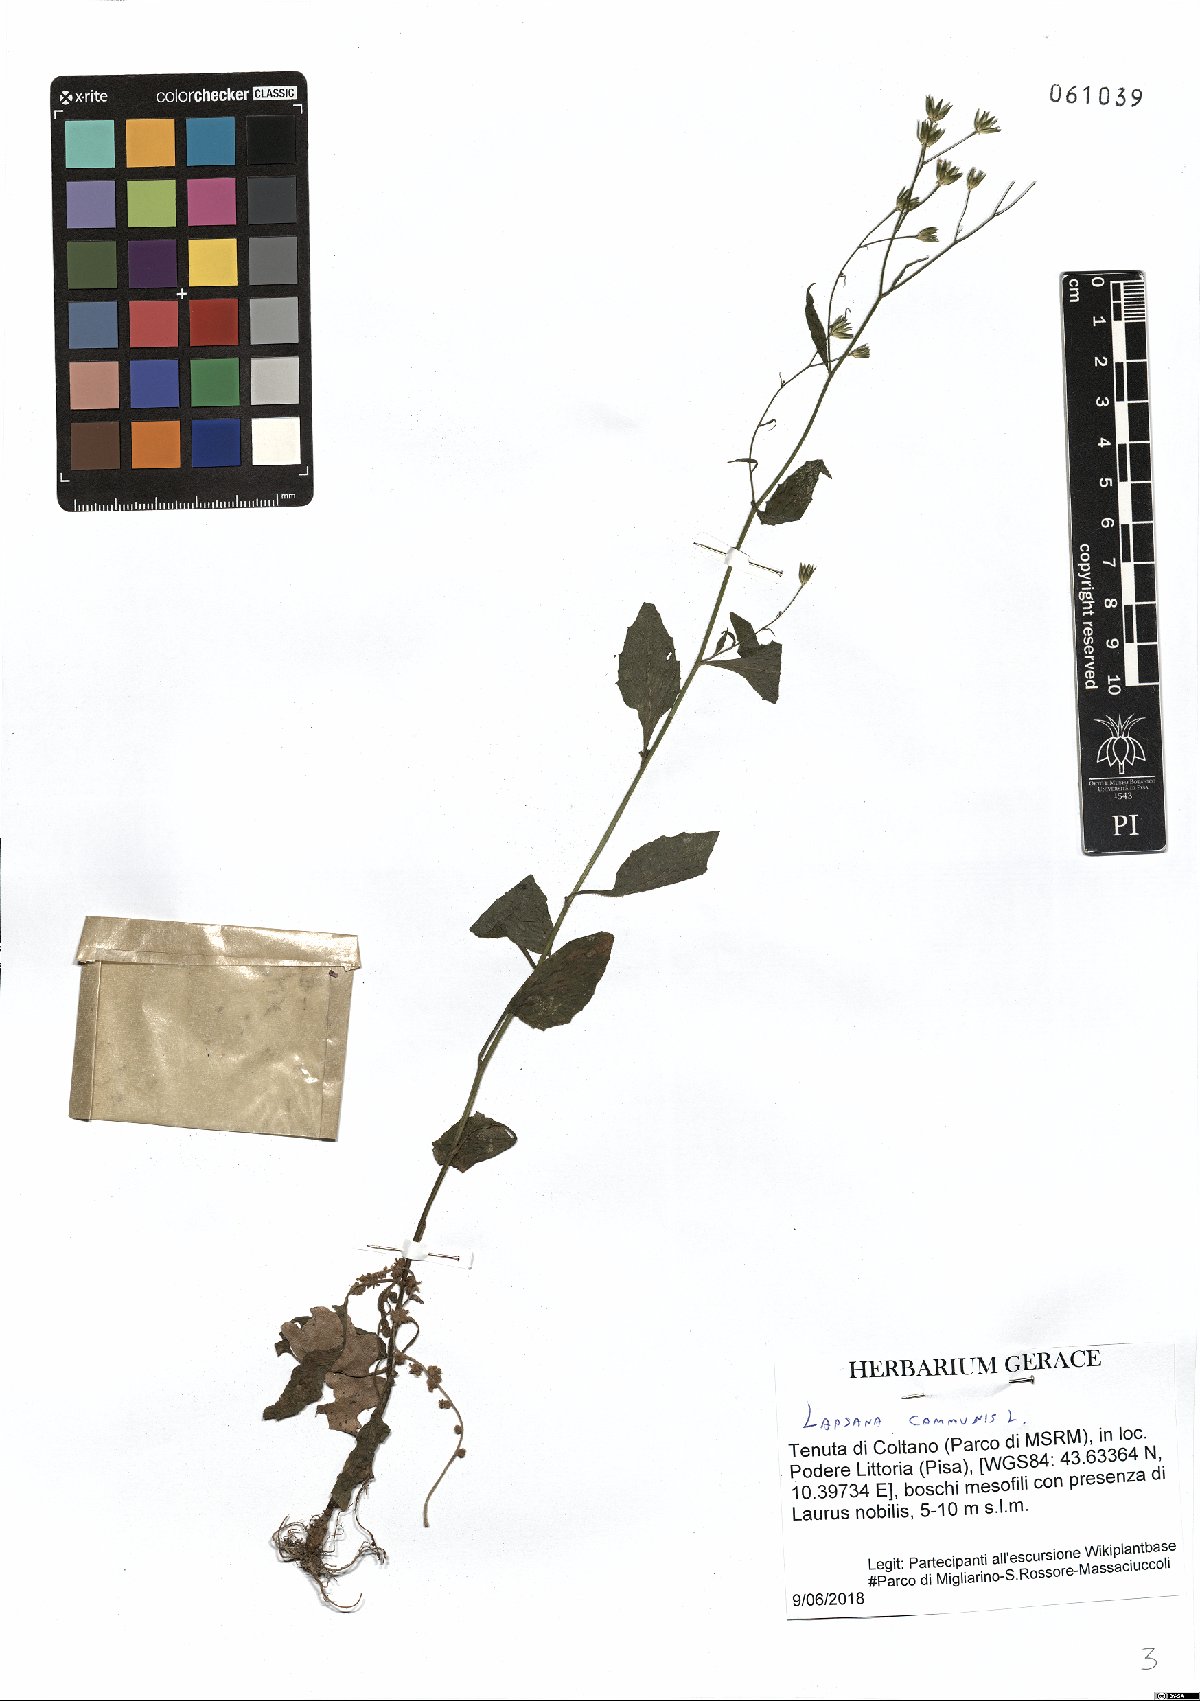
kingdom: Plantae
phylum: Tracheophyta
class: Magnoliopsida
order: Asterales
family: Asteraceae
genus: Lapsana
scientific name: Lapsana communis
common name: Nipplewort
